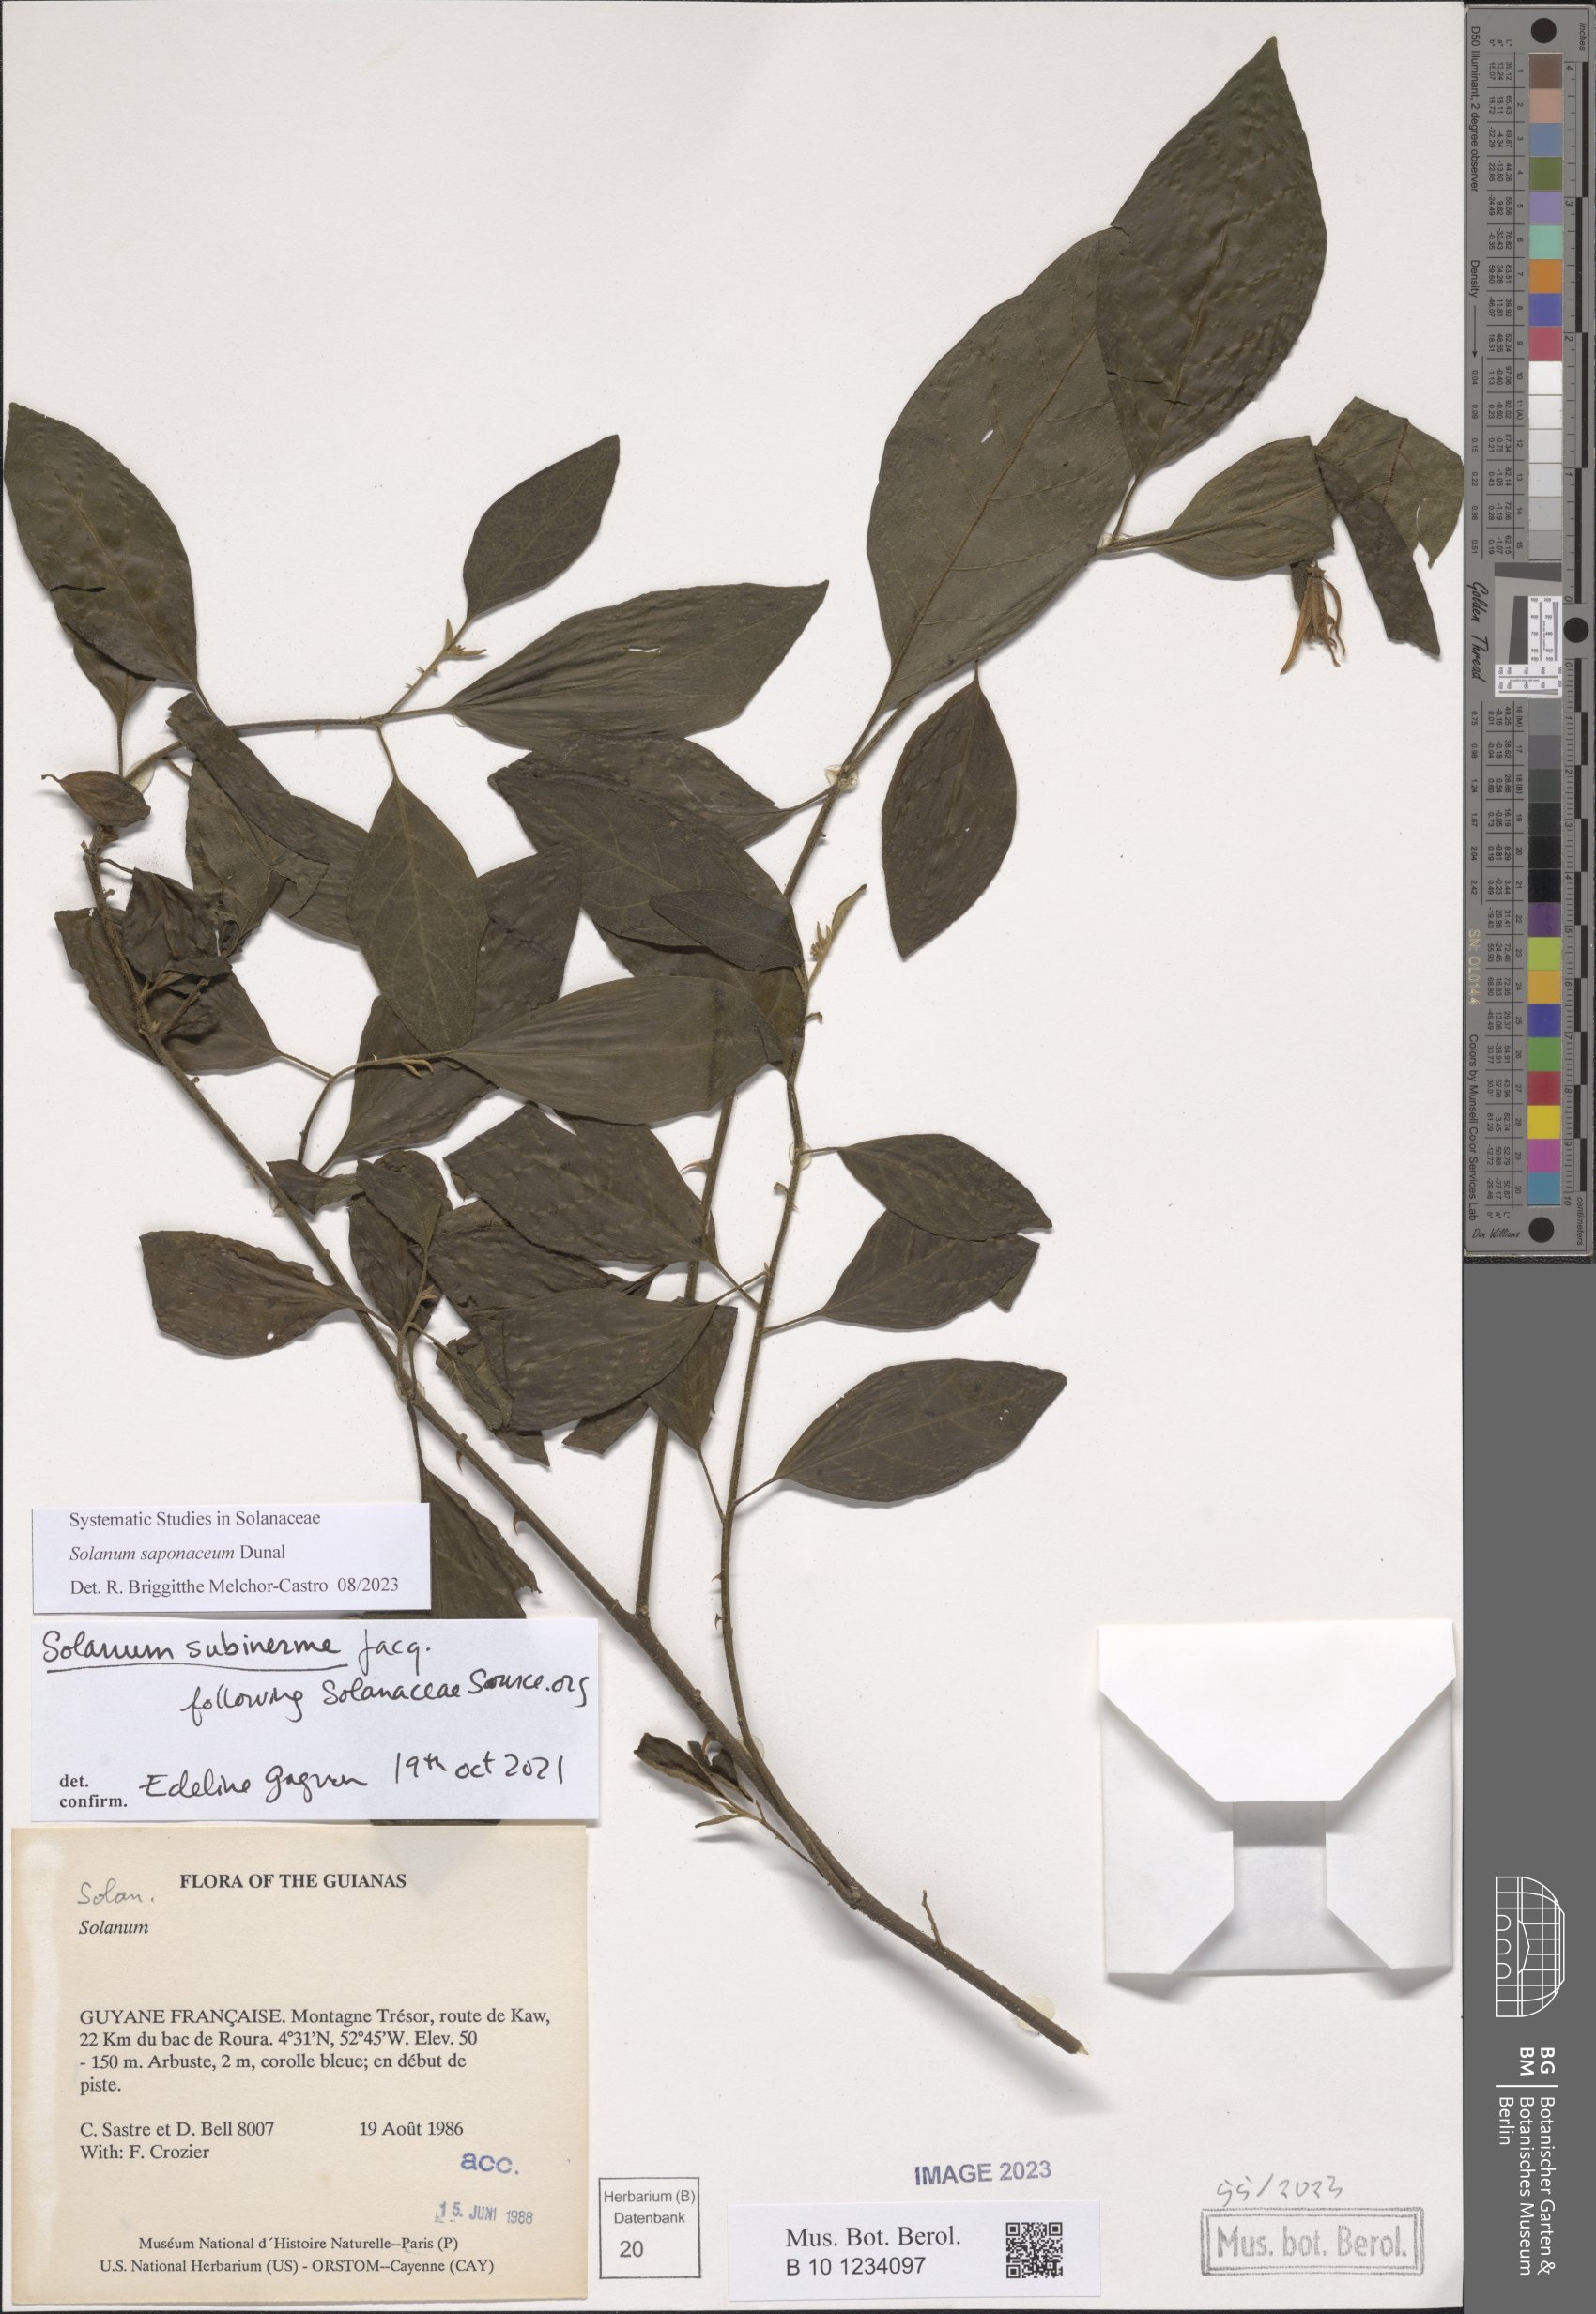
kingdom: Plantae
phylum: Tracheophyta
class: Magnoliopsida
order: Solanales
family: Solanaceae
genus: Solanum
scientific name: Solanum saponaceum
